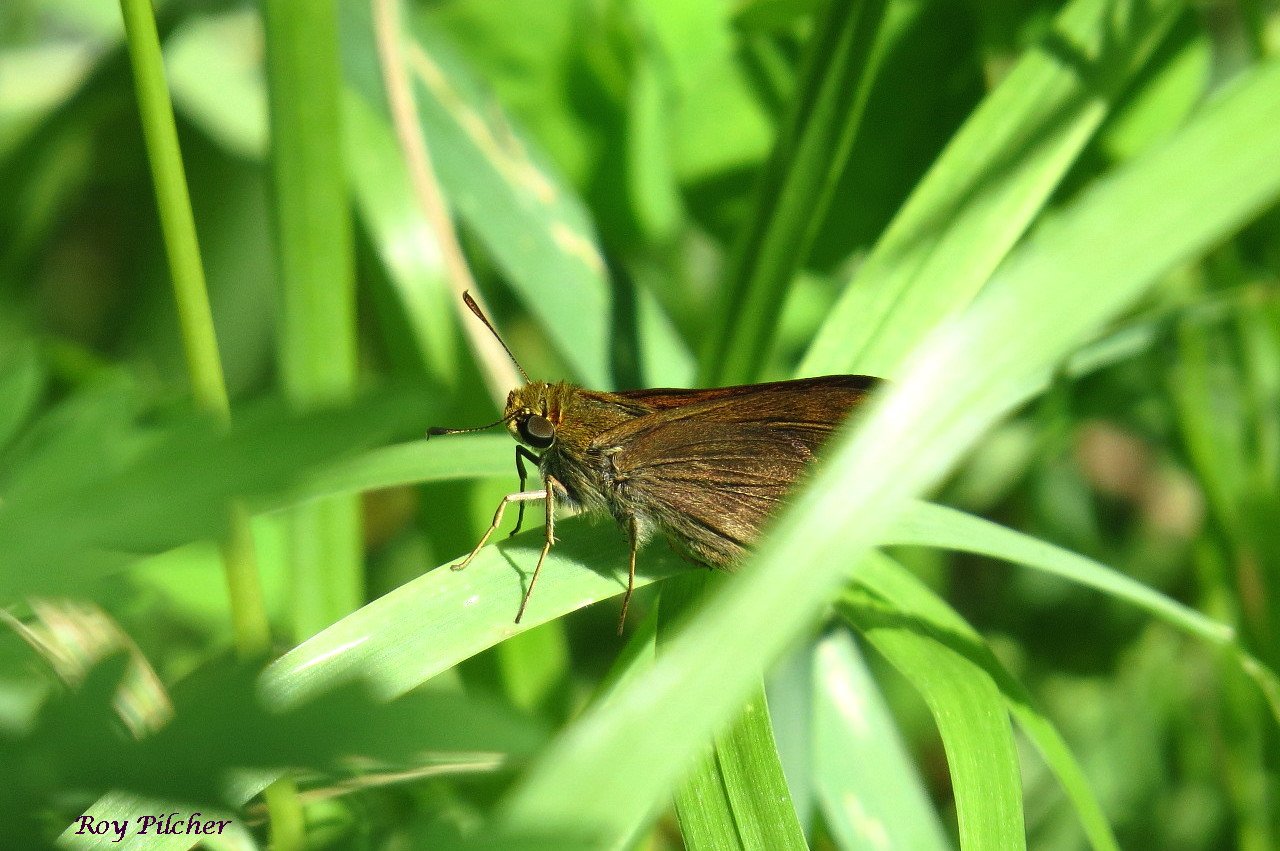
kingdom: Animalia
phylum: Arthropoda
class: Insecta
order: Lepidoptera
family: Hesperiidae
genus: Vernia
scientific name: Vernia verna
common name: Little Glassywing
